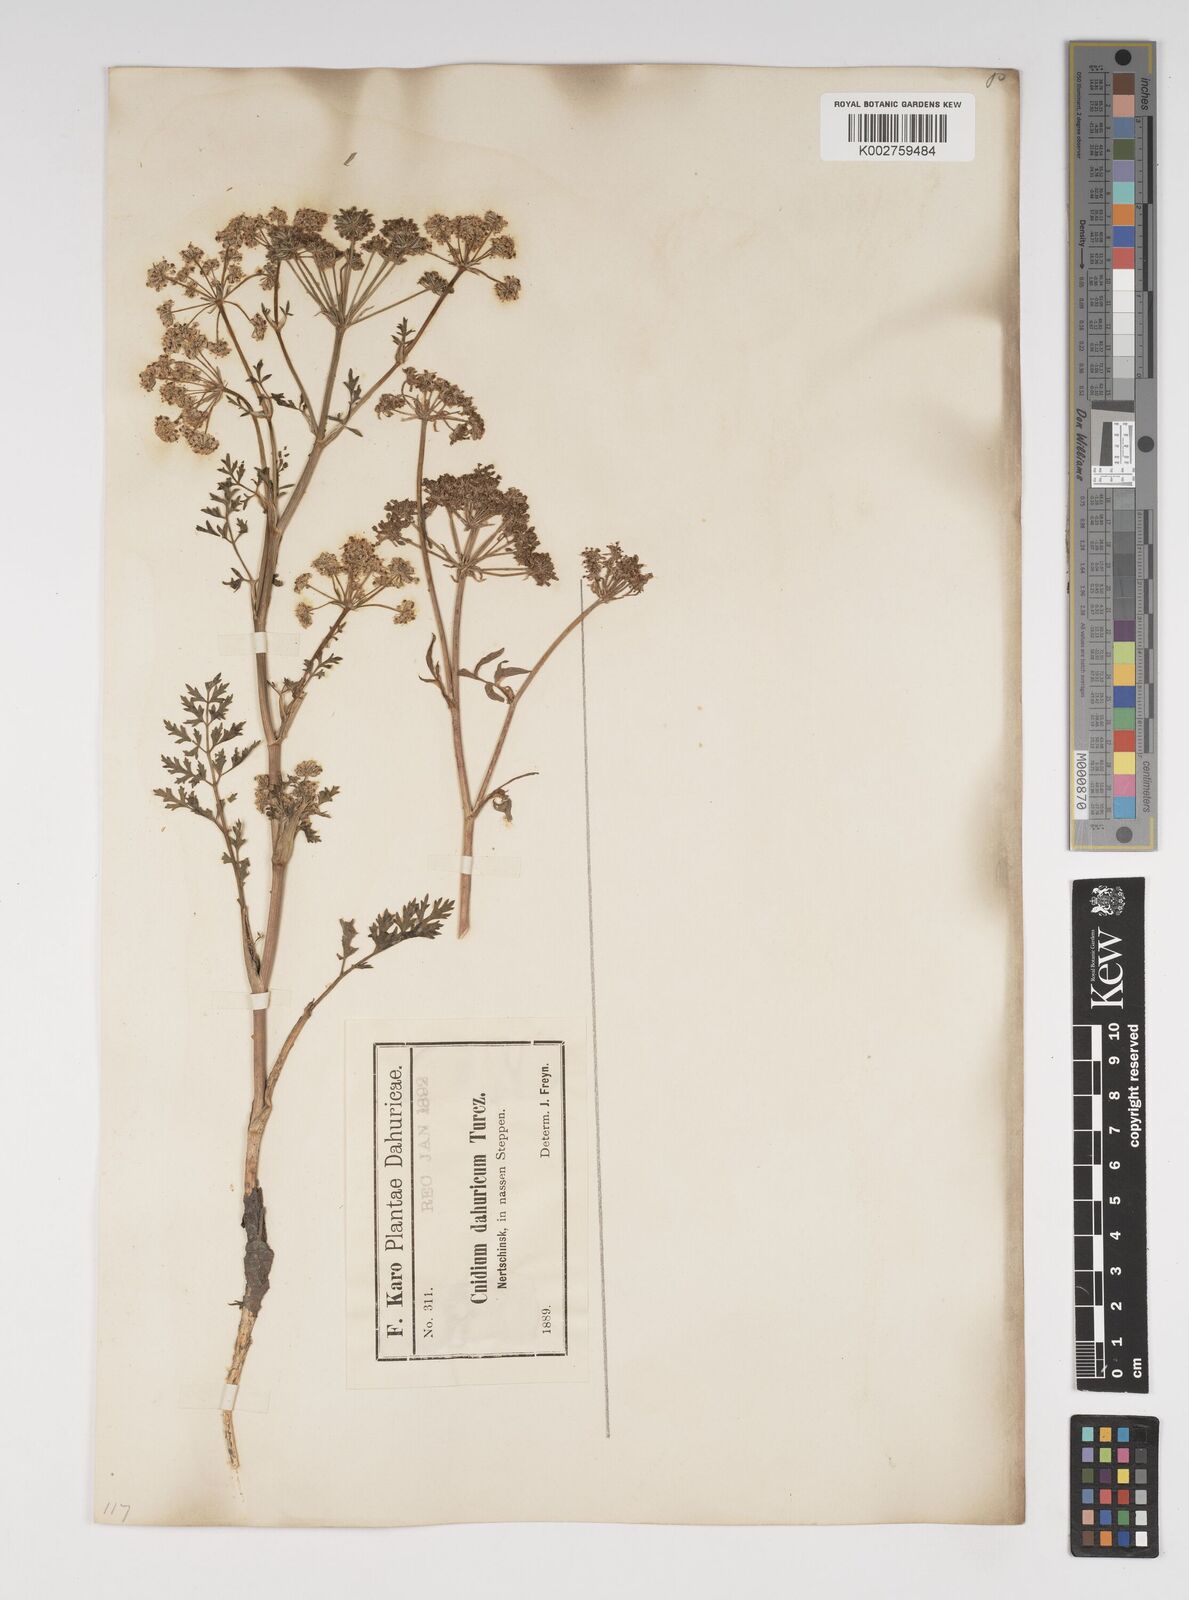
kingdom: Plantae
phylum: Tracheophyta
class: Magnoliopsida
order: Apiales
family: Apiaceae
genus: Cnidium
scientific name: Cnidium dauricum
